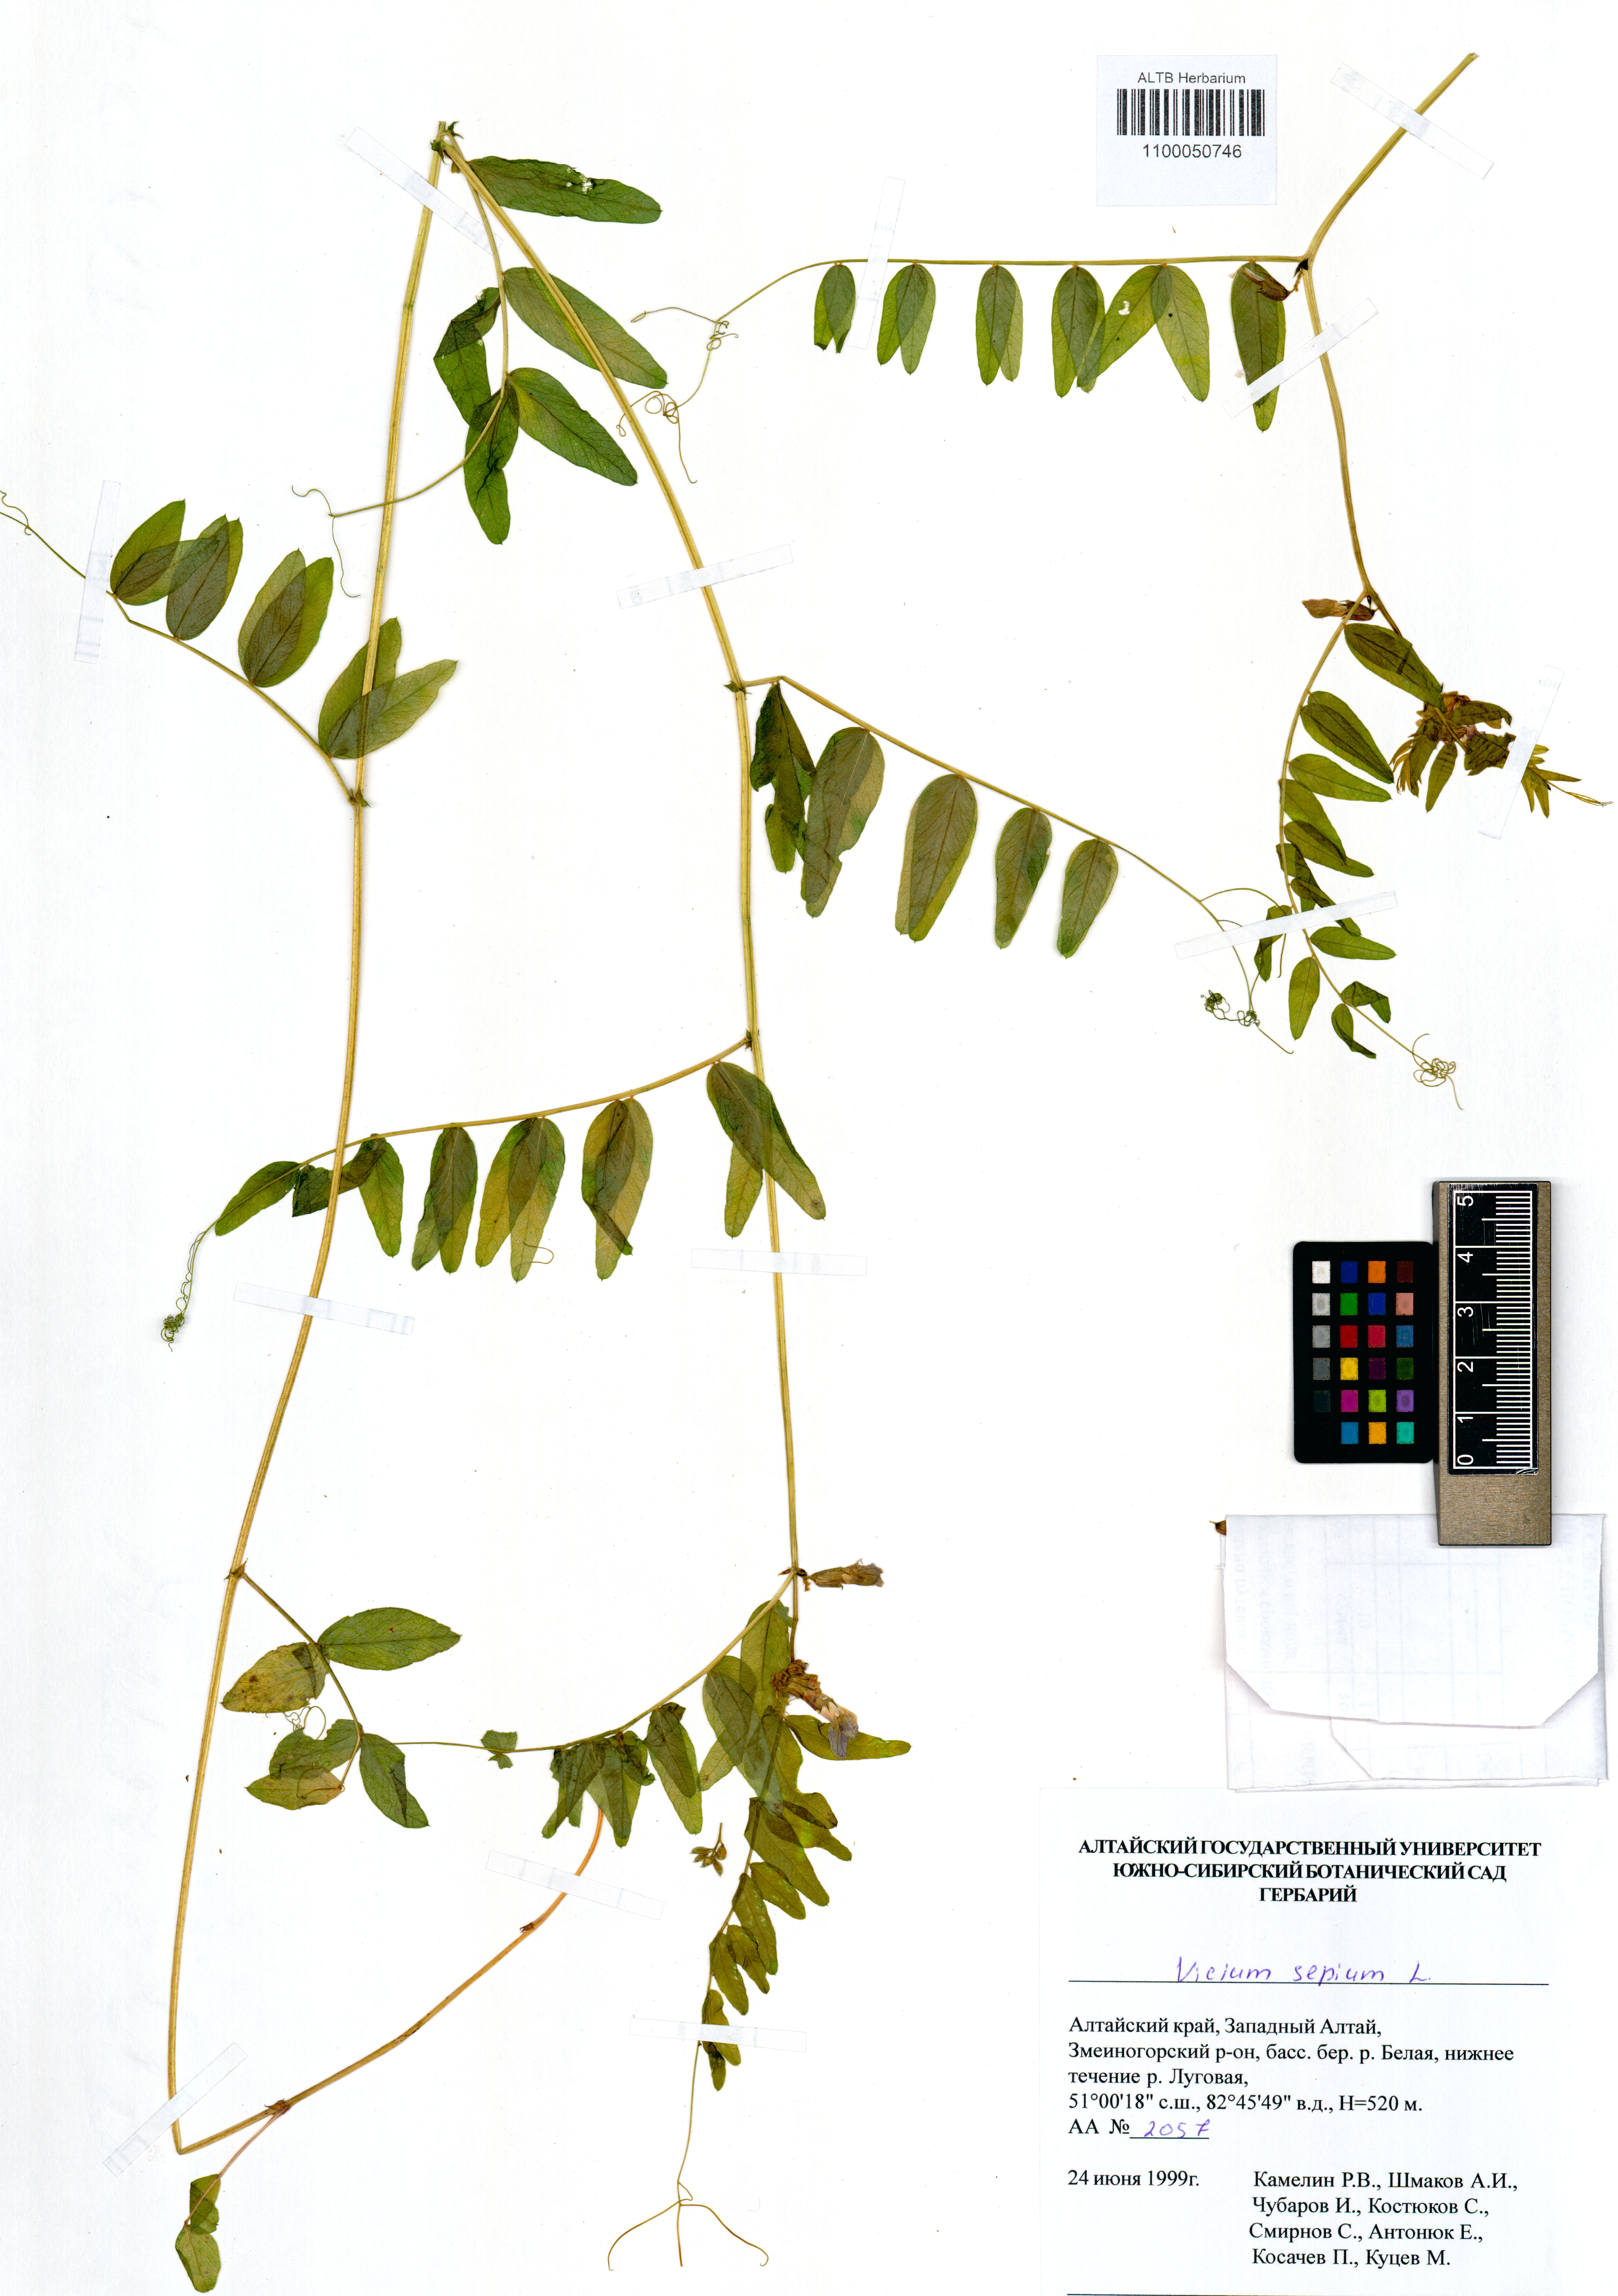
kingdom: Plantae
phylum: Tracheophyta
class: Magnoliopsida
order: Fabales
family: Fabaceae
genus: Vicia
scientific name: Vicia sepium
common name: Bush vetch
